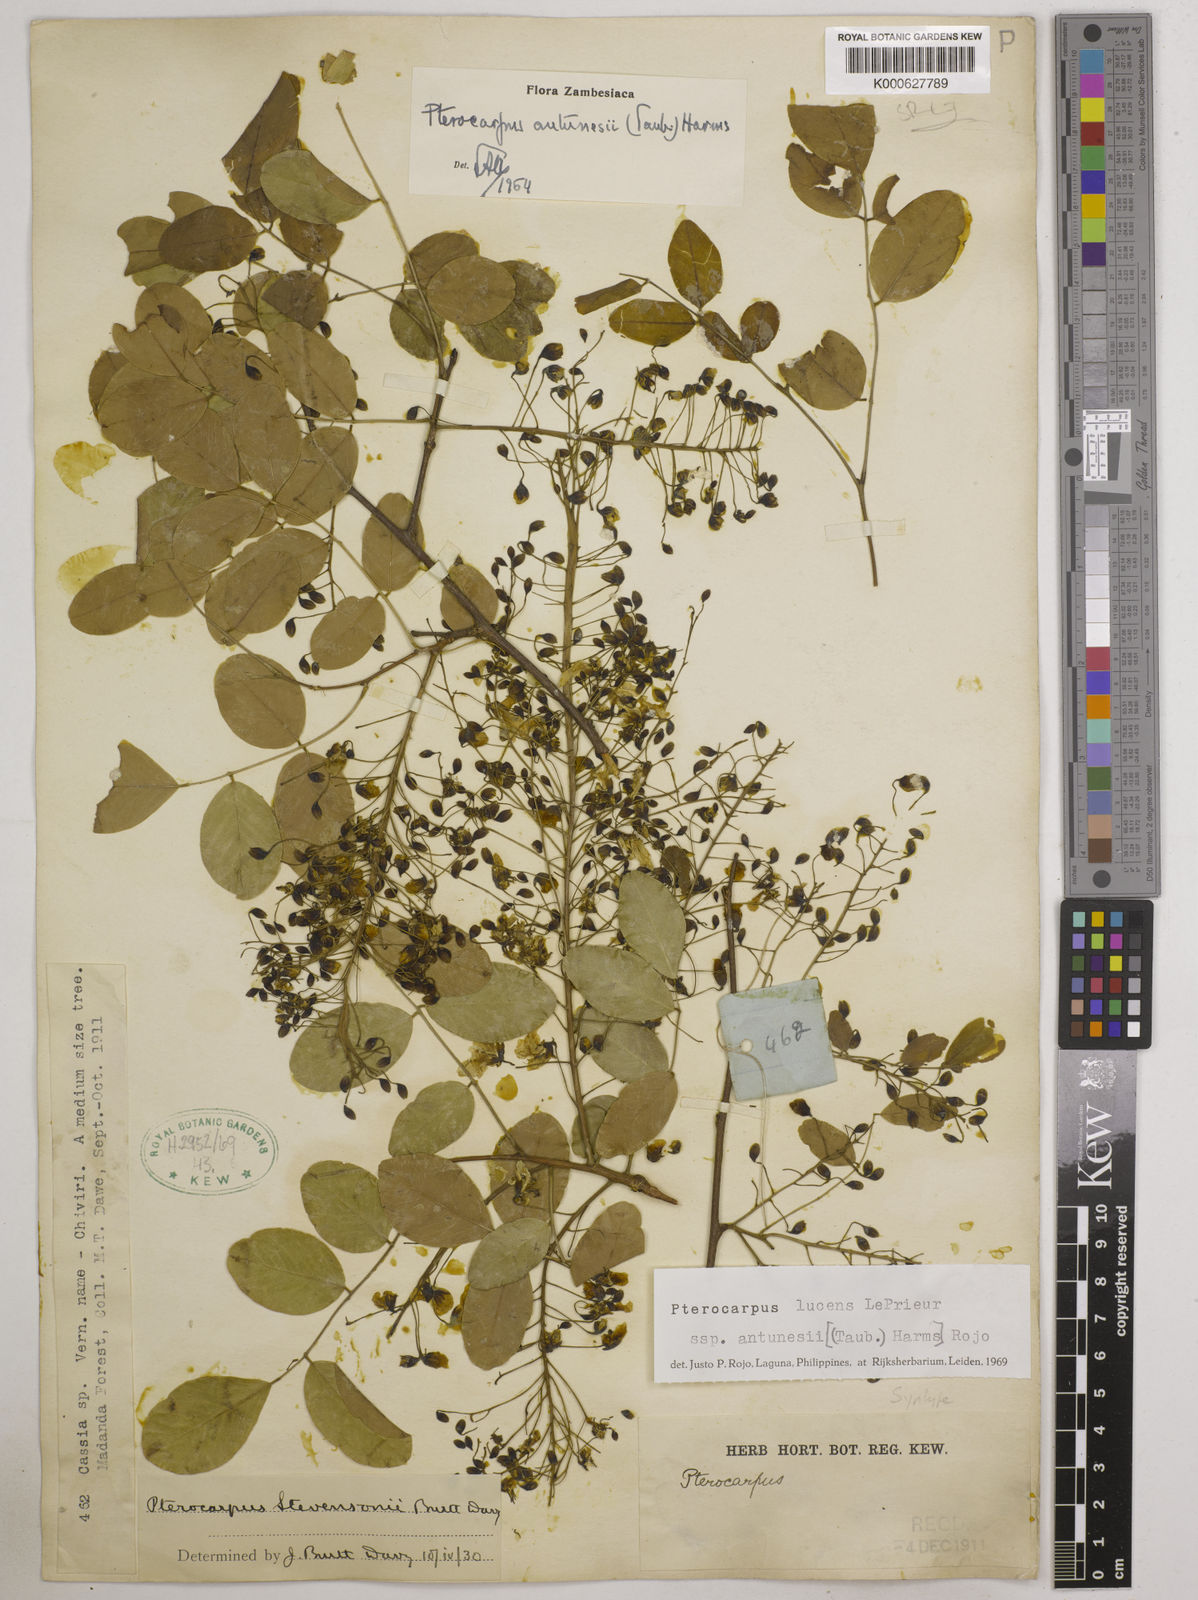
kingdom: Plantae
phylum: Tracheophyta
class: Magnoliopsida
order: Fabales
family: Fabaceae
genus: Pterocarpus
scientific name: Pterocarpus lucens
